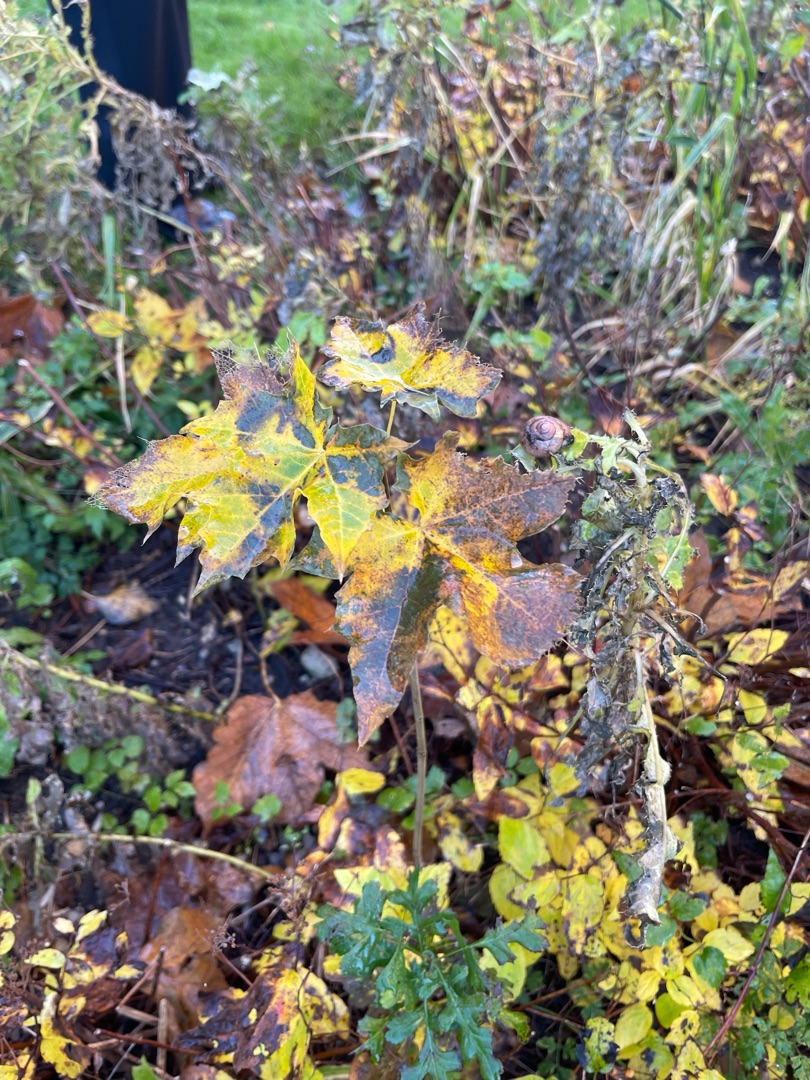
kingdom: Plantae
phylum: Tracheophyta
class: Magnoliopsida
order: Sapindales
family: Sapindaceae
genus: Acer
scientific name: Acer platanoides
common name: Spids-løn
